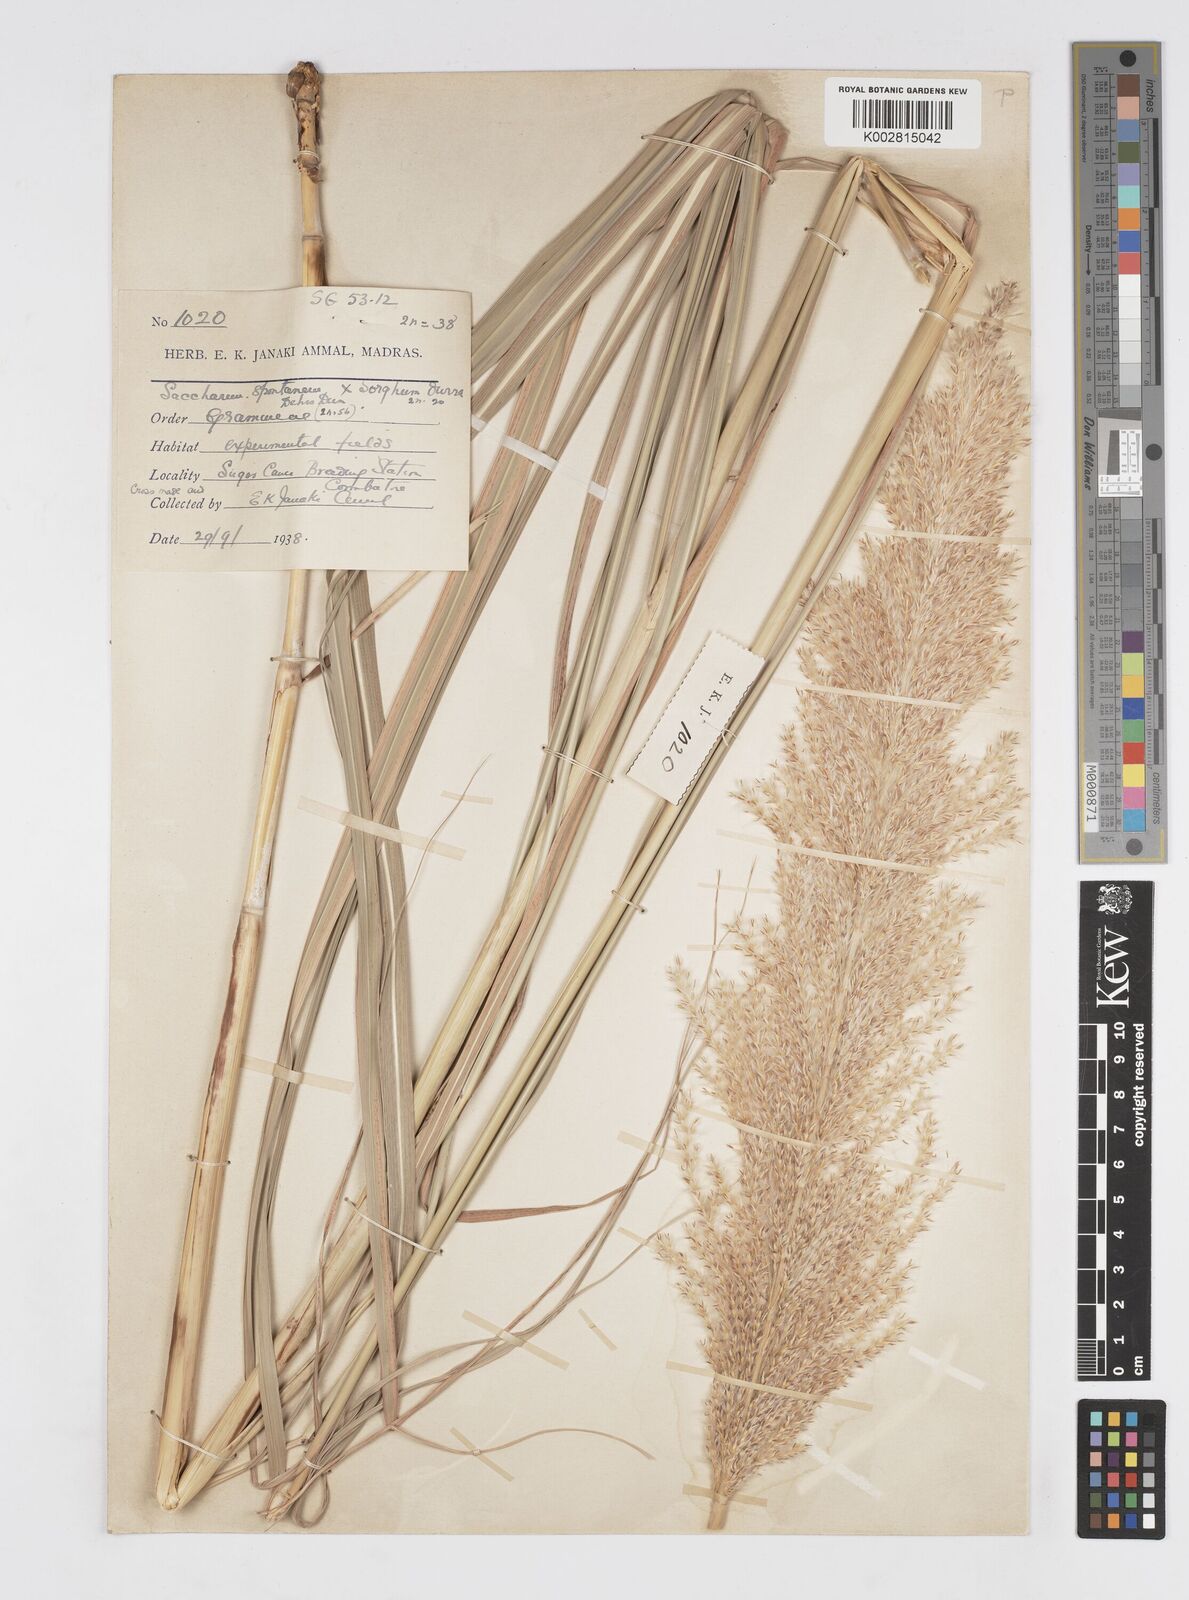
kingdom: Plantae
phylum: Tracheophyta
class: Liliopsida
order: Poales
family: Poaceae
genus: Saccharum
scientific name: Saccharum
